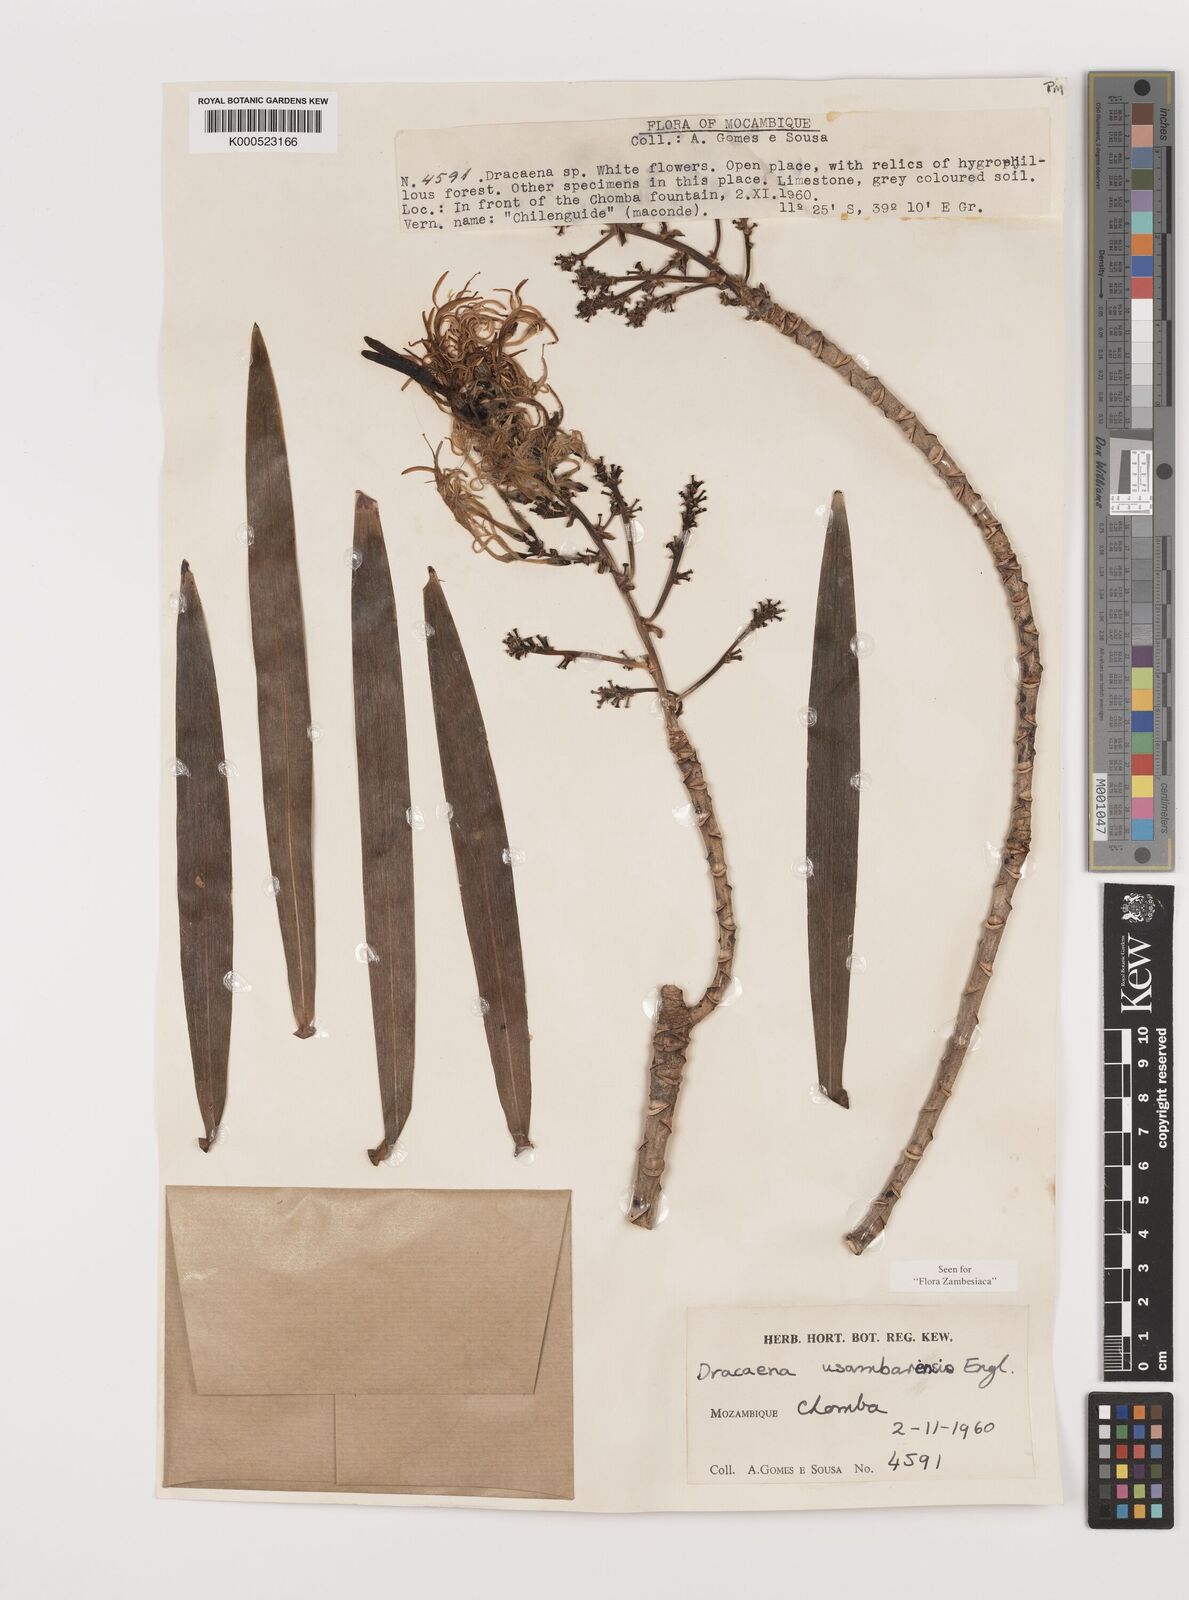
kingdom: Plantae
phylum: Tracheophyta
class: Liliopsida
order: Asparagales
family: Asparagaceae
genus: Dracaena
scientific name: Dracaena usambarensis
